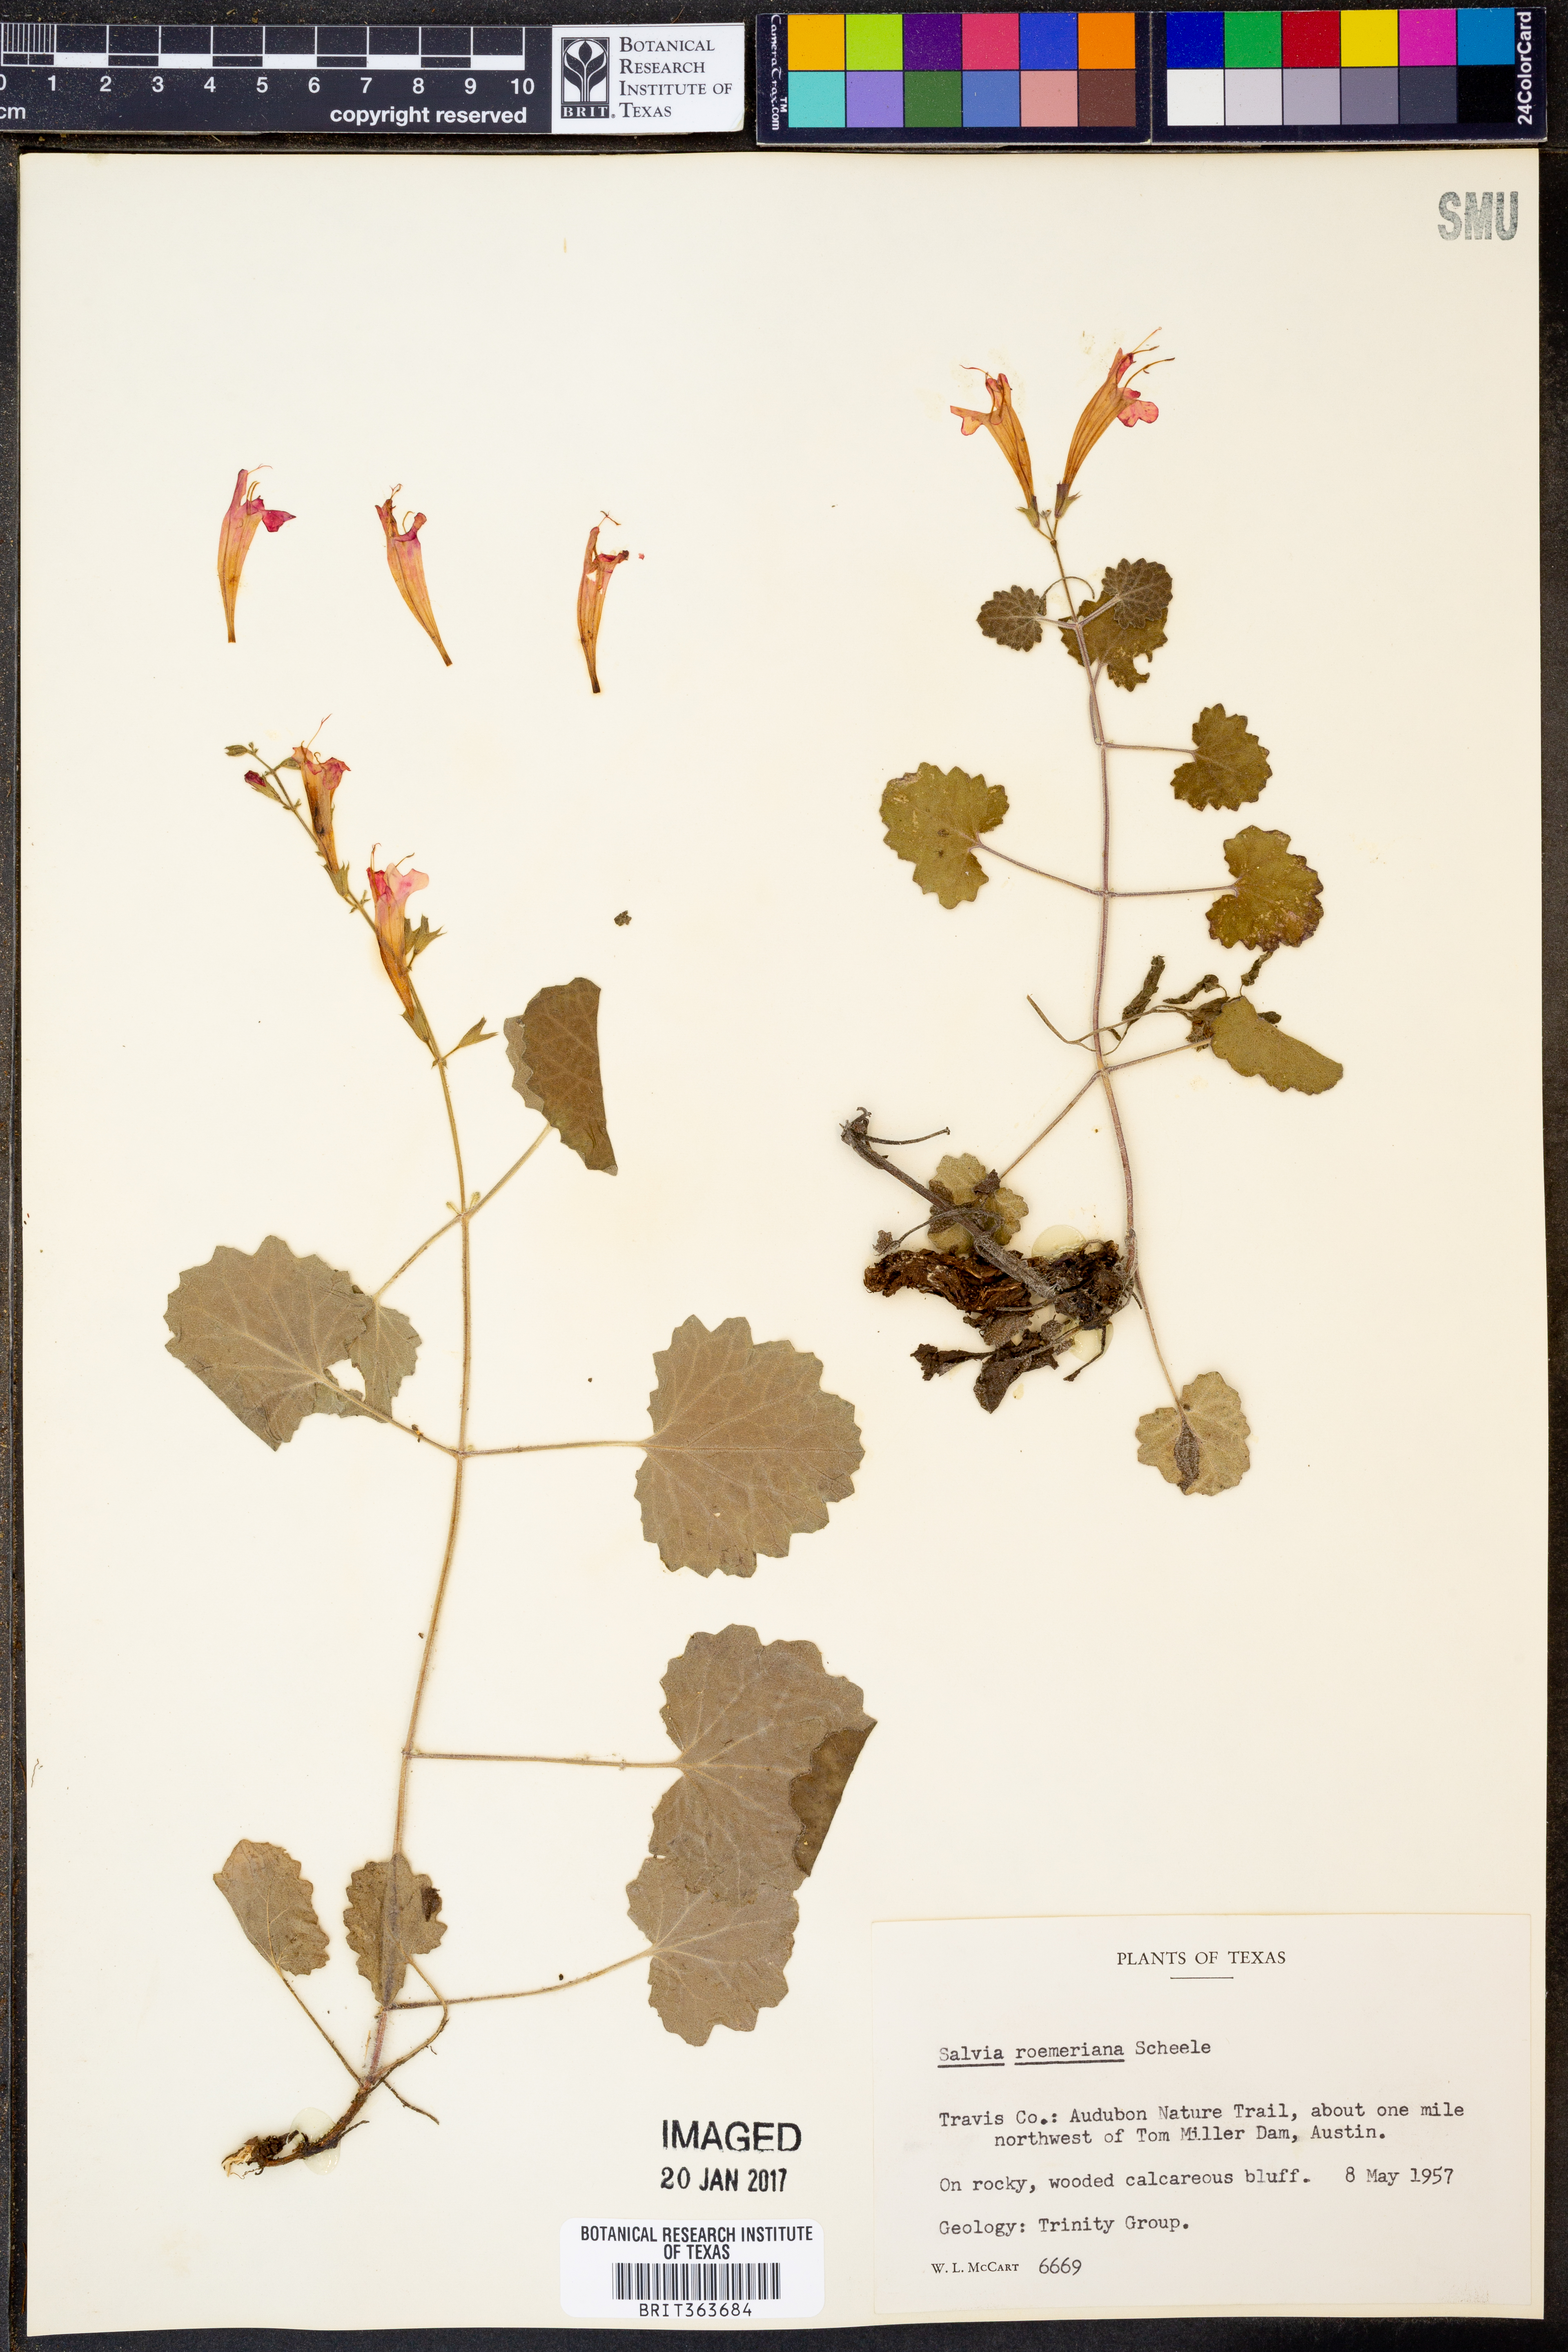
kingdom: Plantae
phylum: Tracheophyta
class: Magnoliopsida
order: Lamiales
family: Lamiaceae
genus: Salvia
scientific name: Salvia roemeriana
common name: Cedar sage
